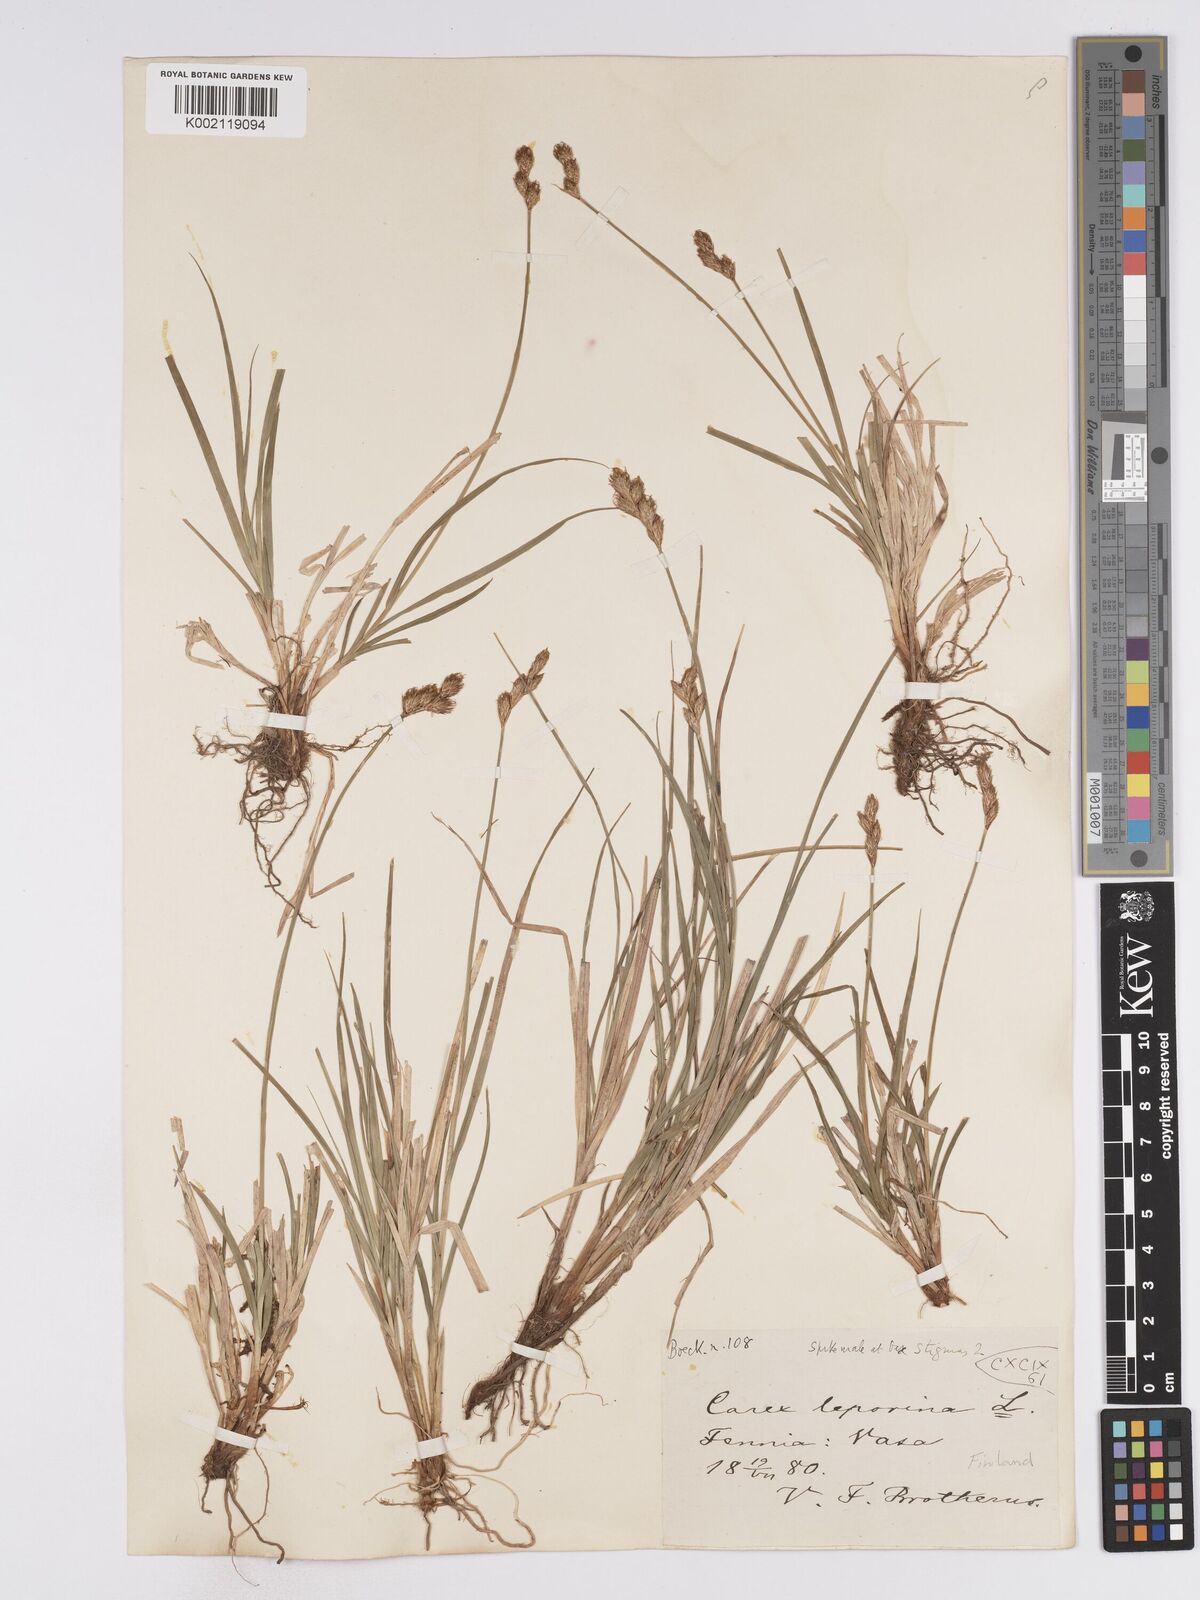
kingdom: Plantae
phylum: Tracheophyta
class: Liliopsida
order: Poales
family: Cyperaceae
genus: Carex
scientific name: Carex leporina
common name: Oval sedge
